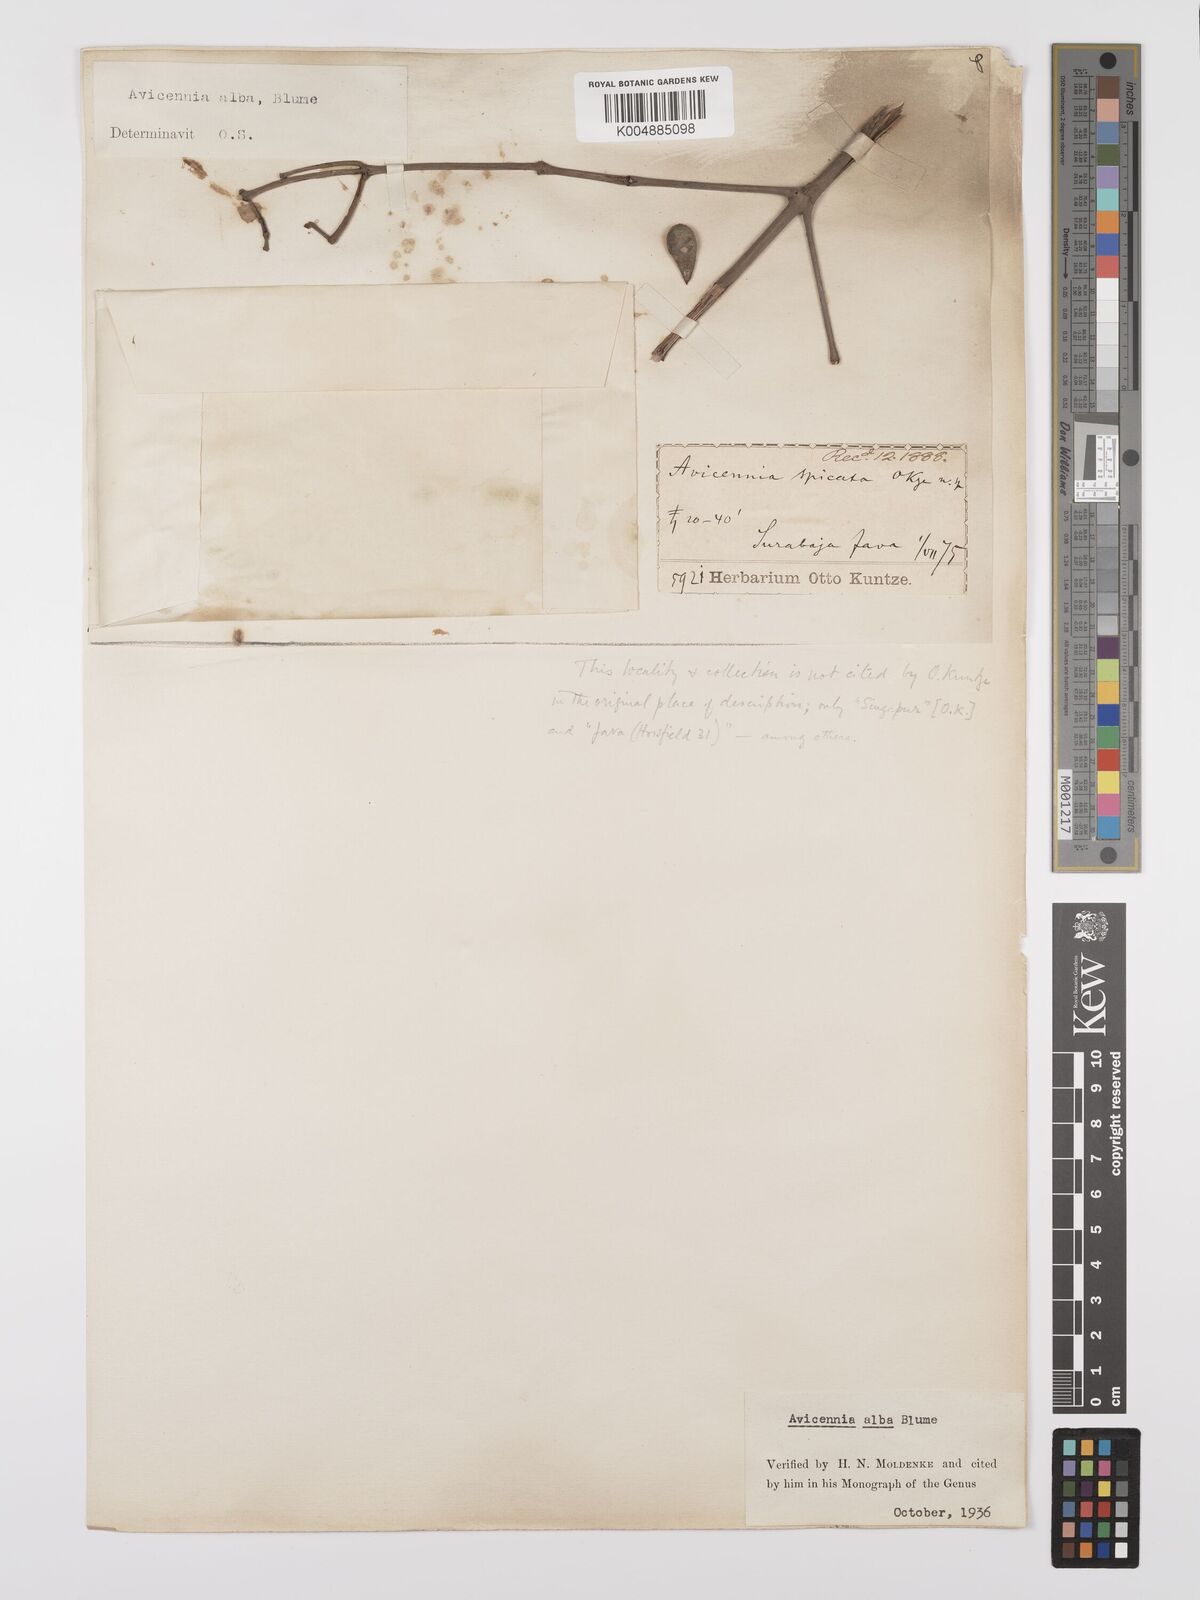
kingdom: Plantae
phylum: Tracheophyta
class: Magnoliopsida
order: Lamiales
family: Acanthaceae
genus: Avicennia
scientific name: Avicennia alba
